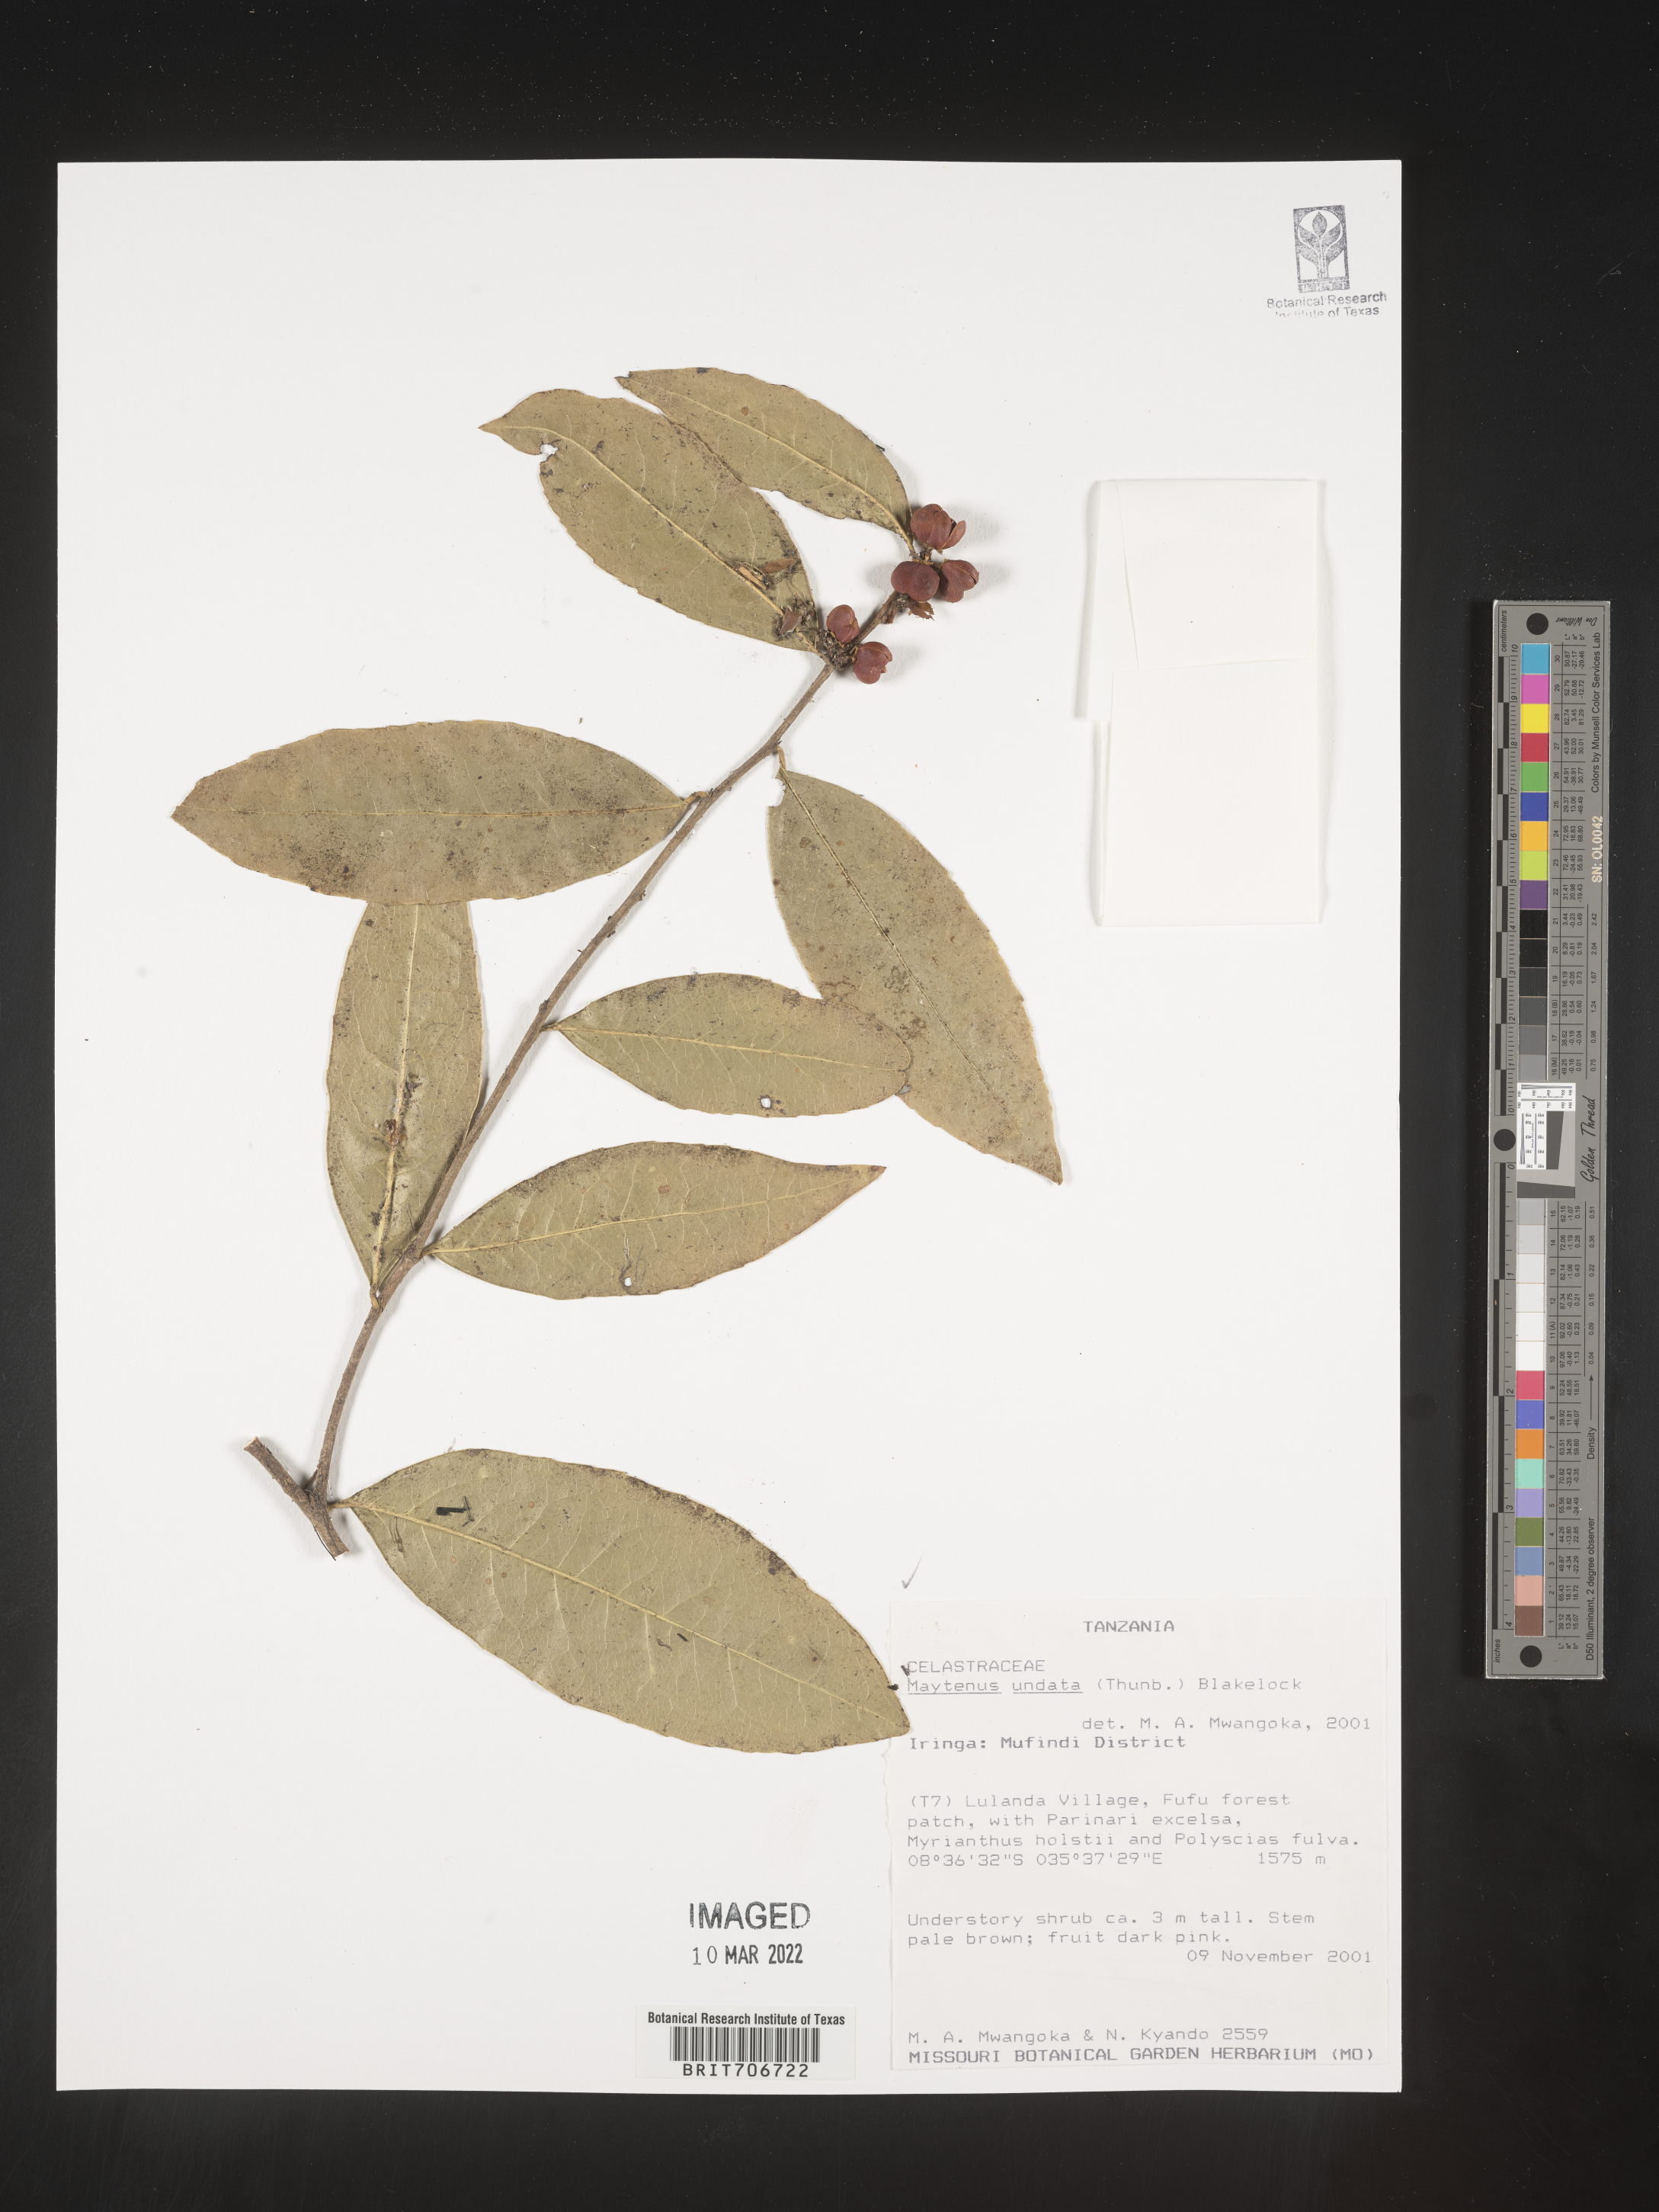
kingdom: Plantae
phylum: Tracheophyta
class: Magnoliopsida
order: Celastrales
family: Celastraceae
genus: Maytenus
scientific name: Maytenus
